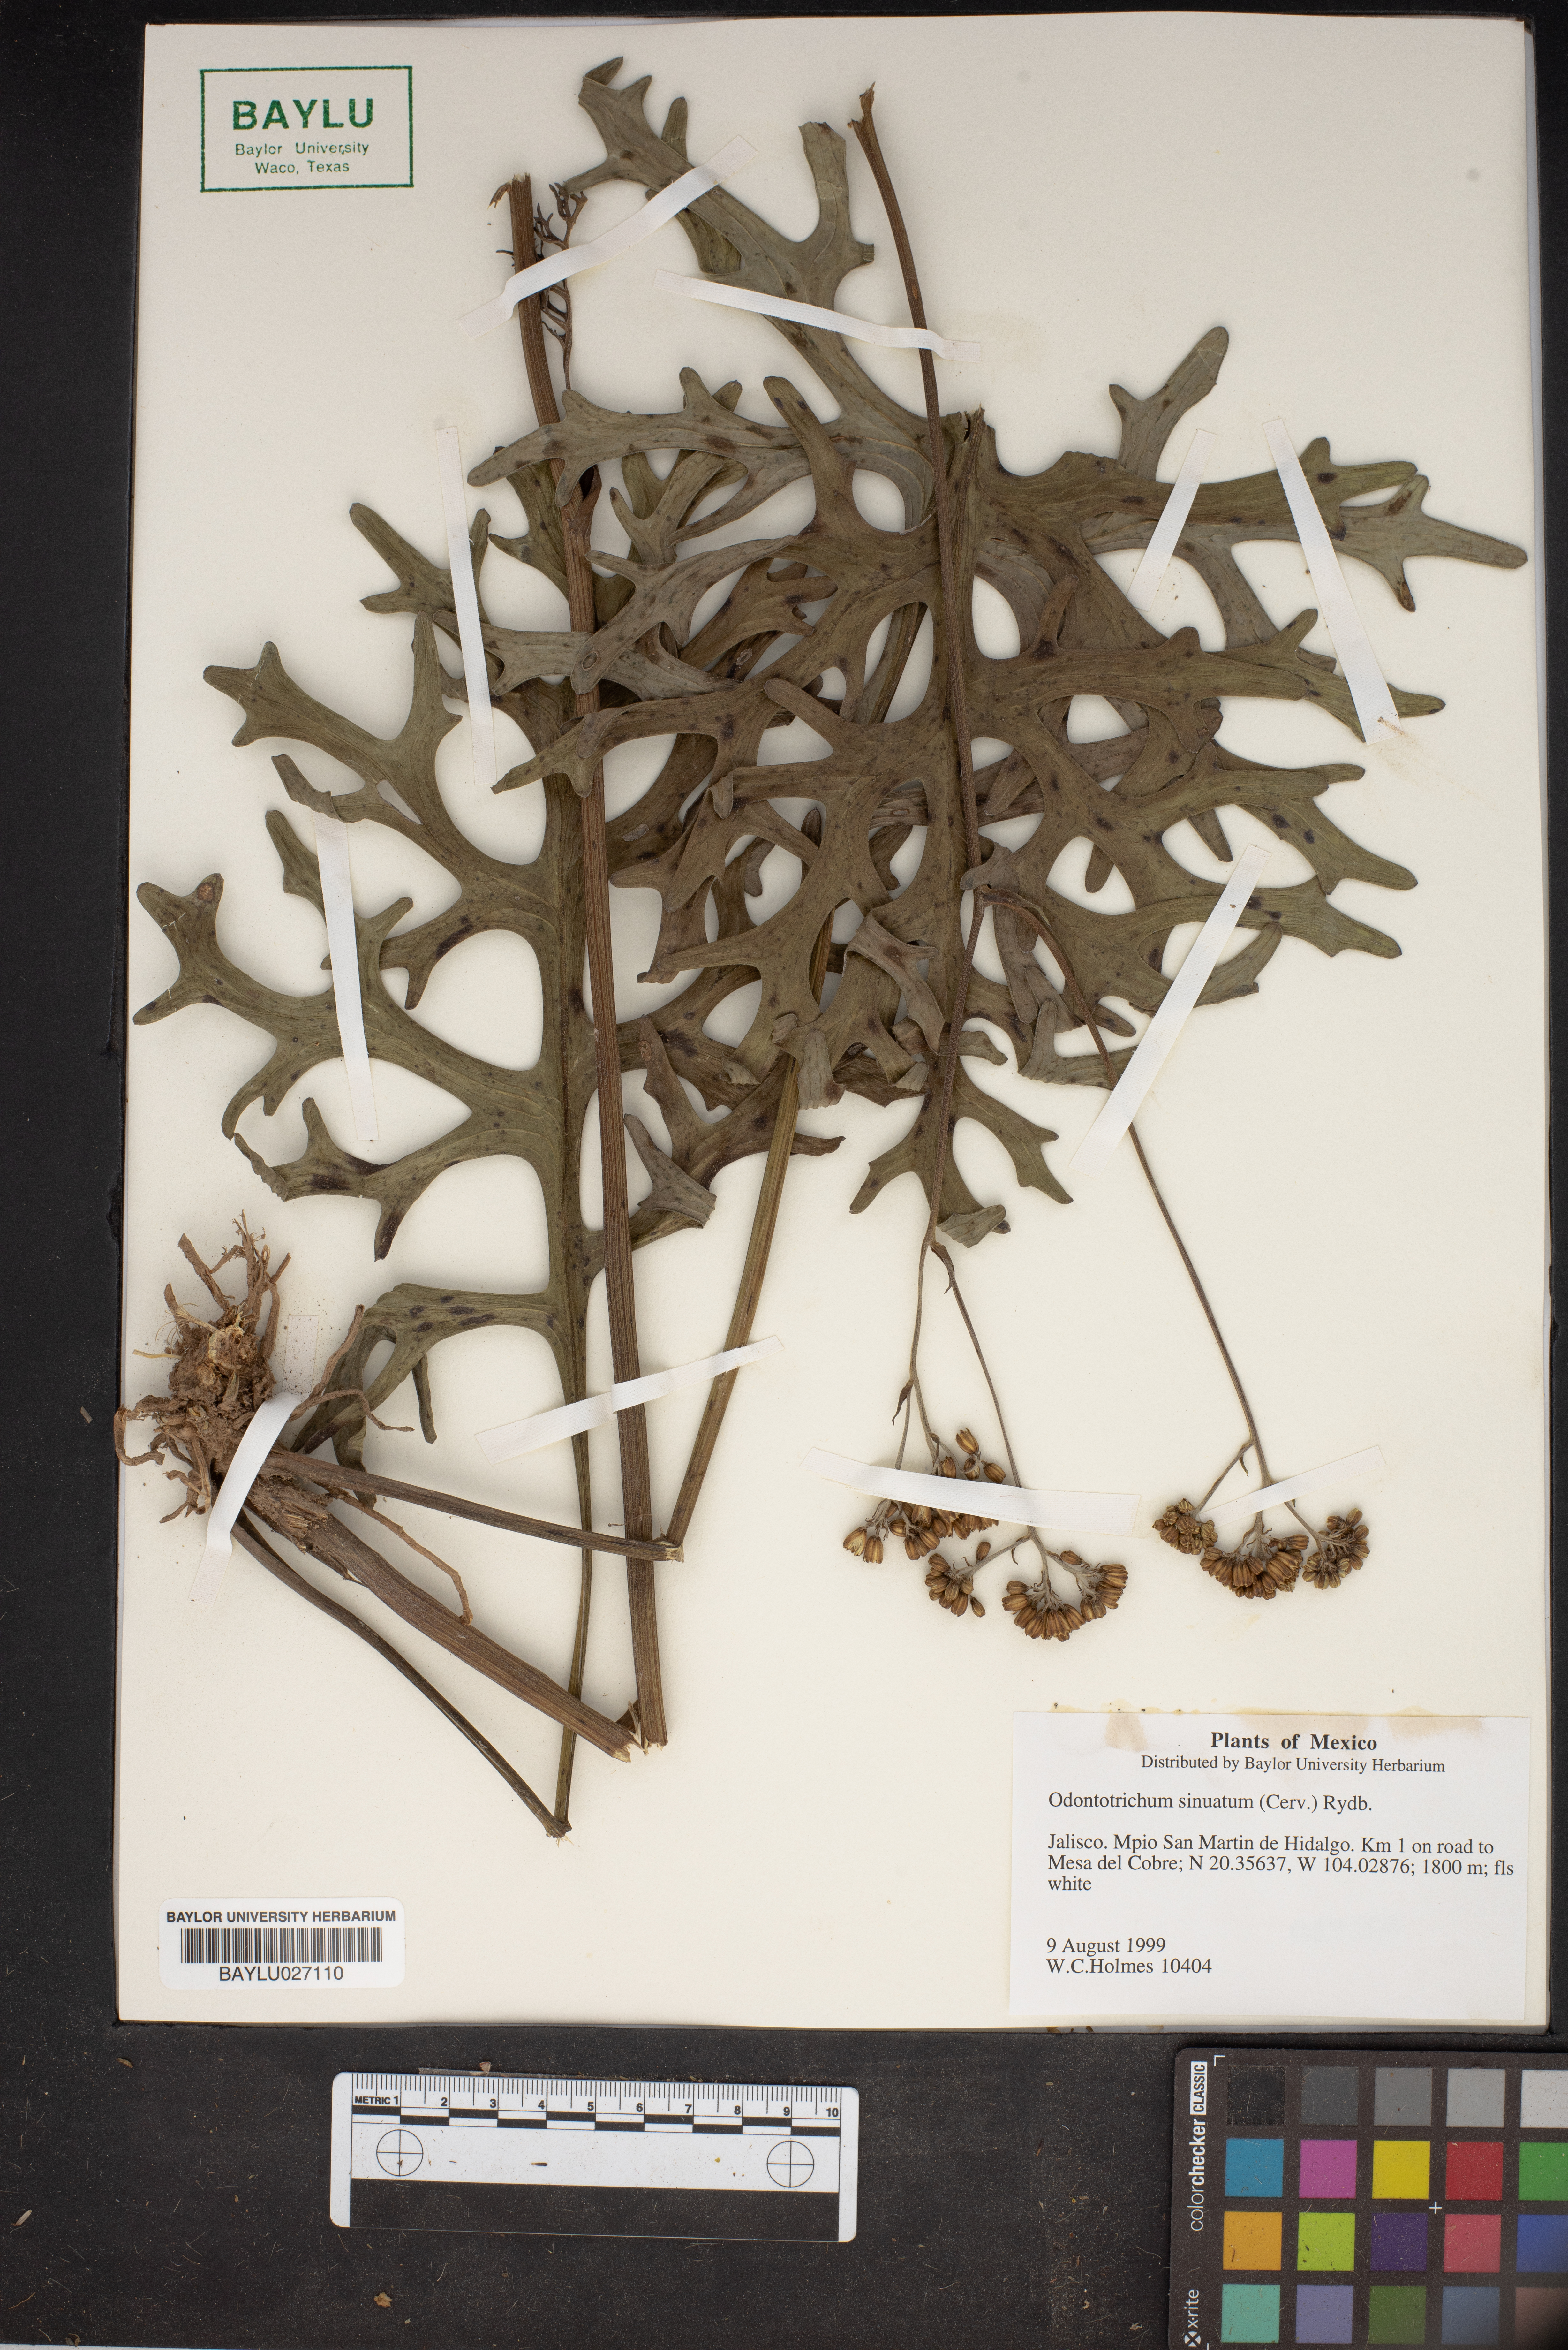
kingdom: Plantae
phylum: Tracheophyta
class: Magnoliopsida
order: Asterales
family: Asteraceae
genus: Psacalium
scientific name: Psacalium sinuatum
